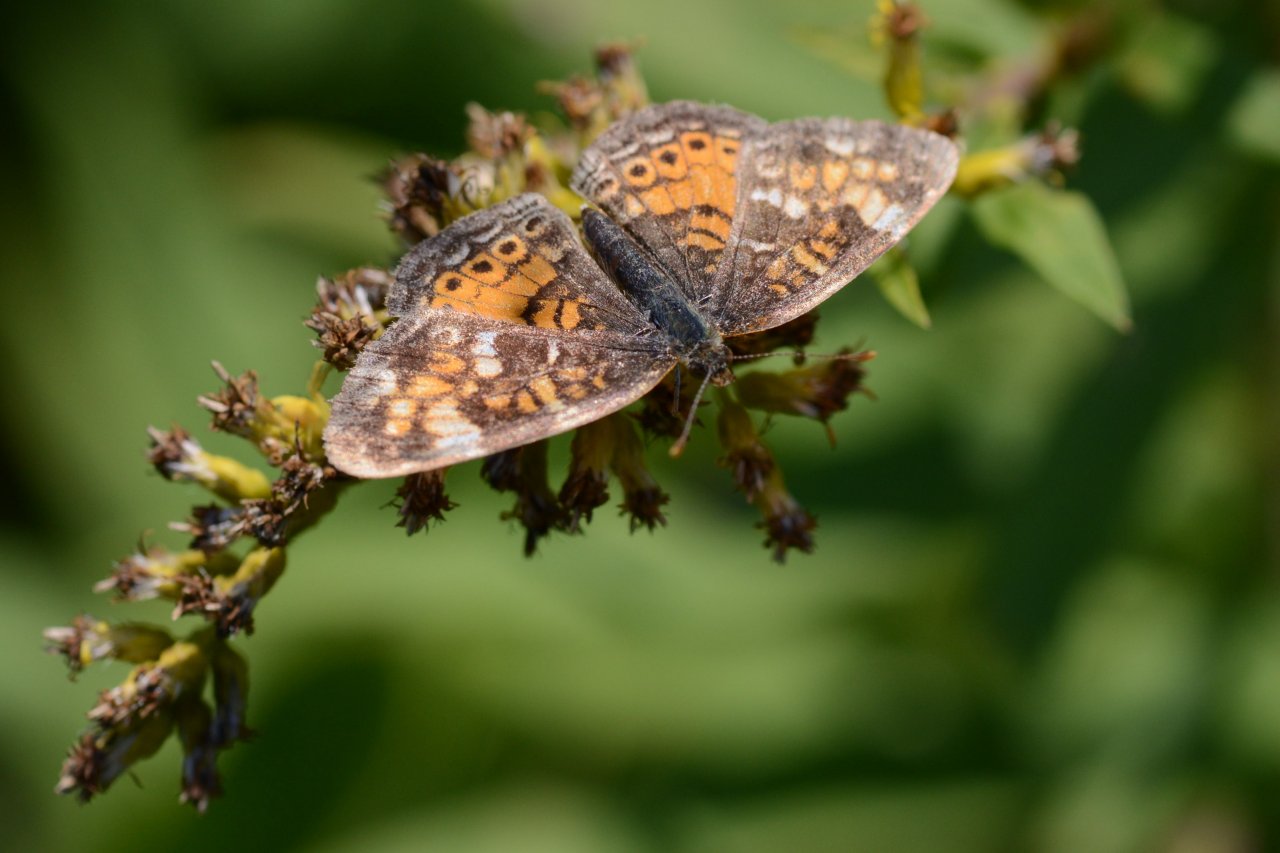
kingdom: Animalia
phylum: Arthropoda
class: Insecta
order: Lepidoptera
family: Nymphalidae
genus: Phyciodes
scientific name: Phyciodes tharos
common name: Northern Crescent
